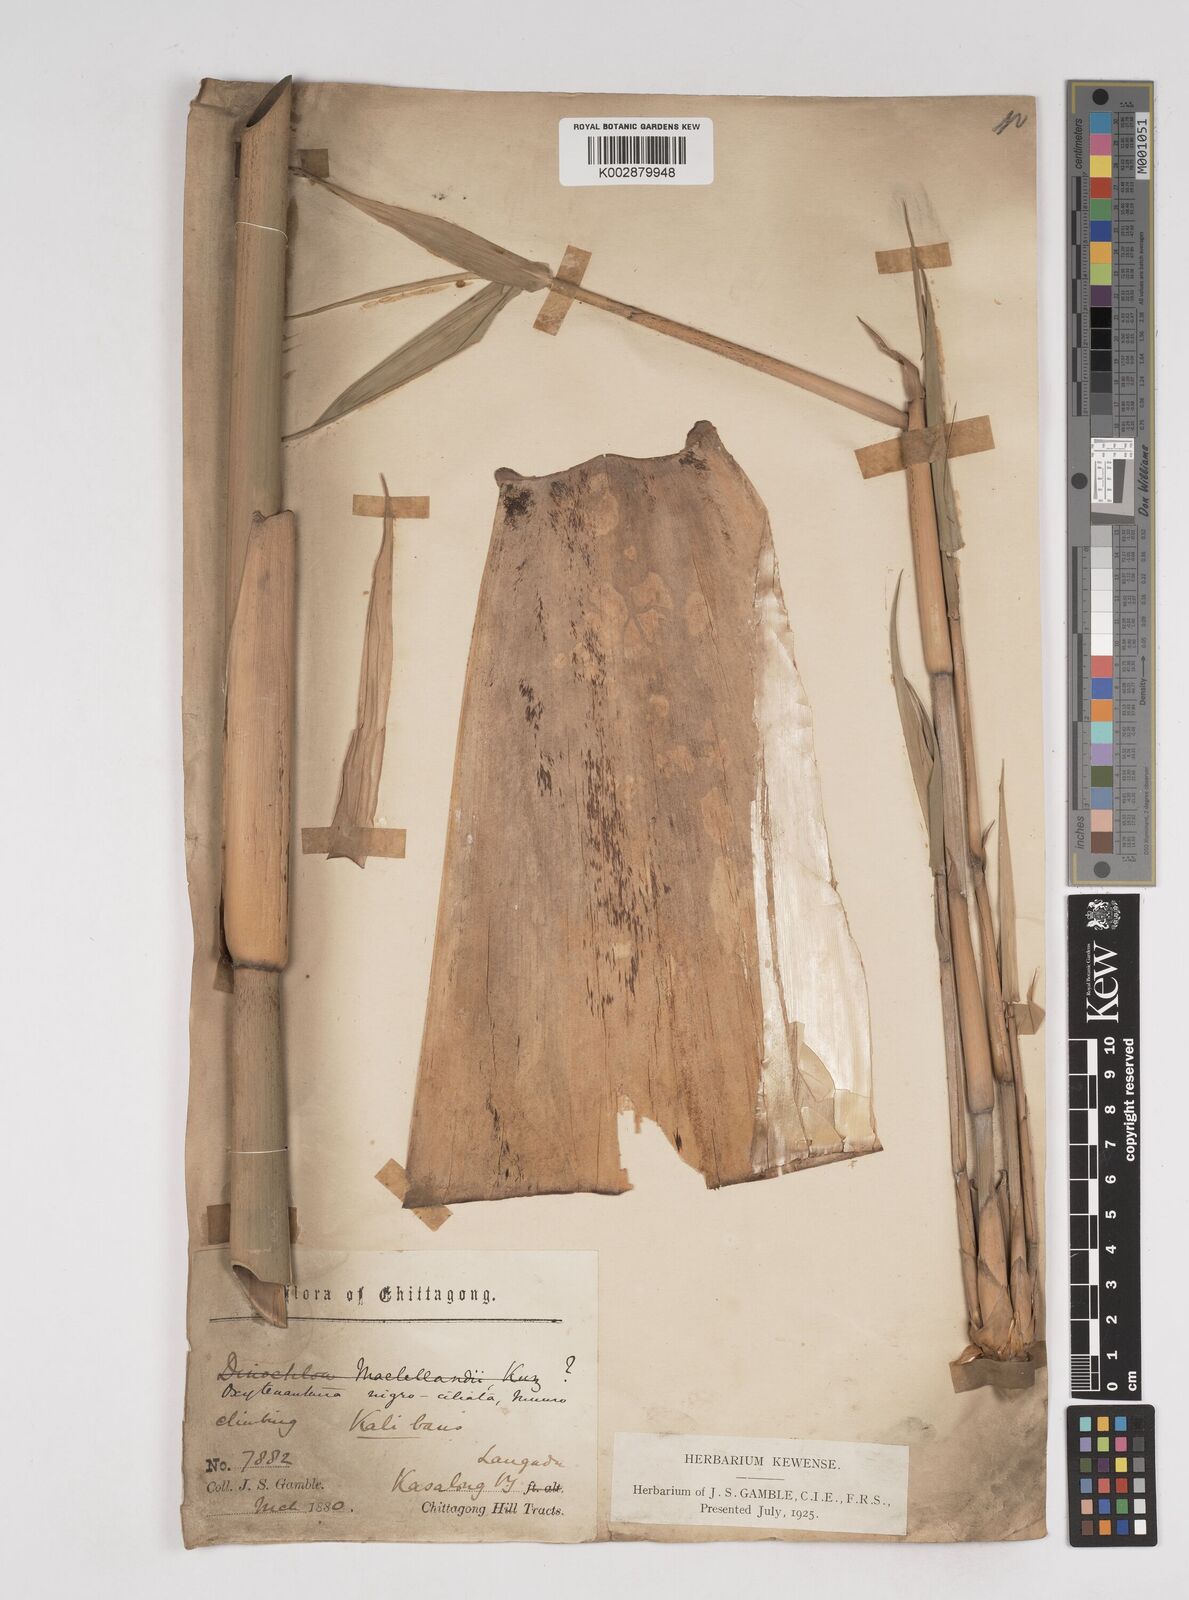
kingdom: Plantae
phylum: Tracheophyta
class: Liliopsida
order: Poales
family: Poaceae
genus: Gigantochloa
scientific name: Gigantochloa nigrociliata
